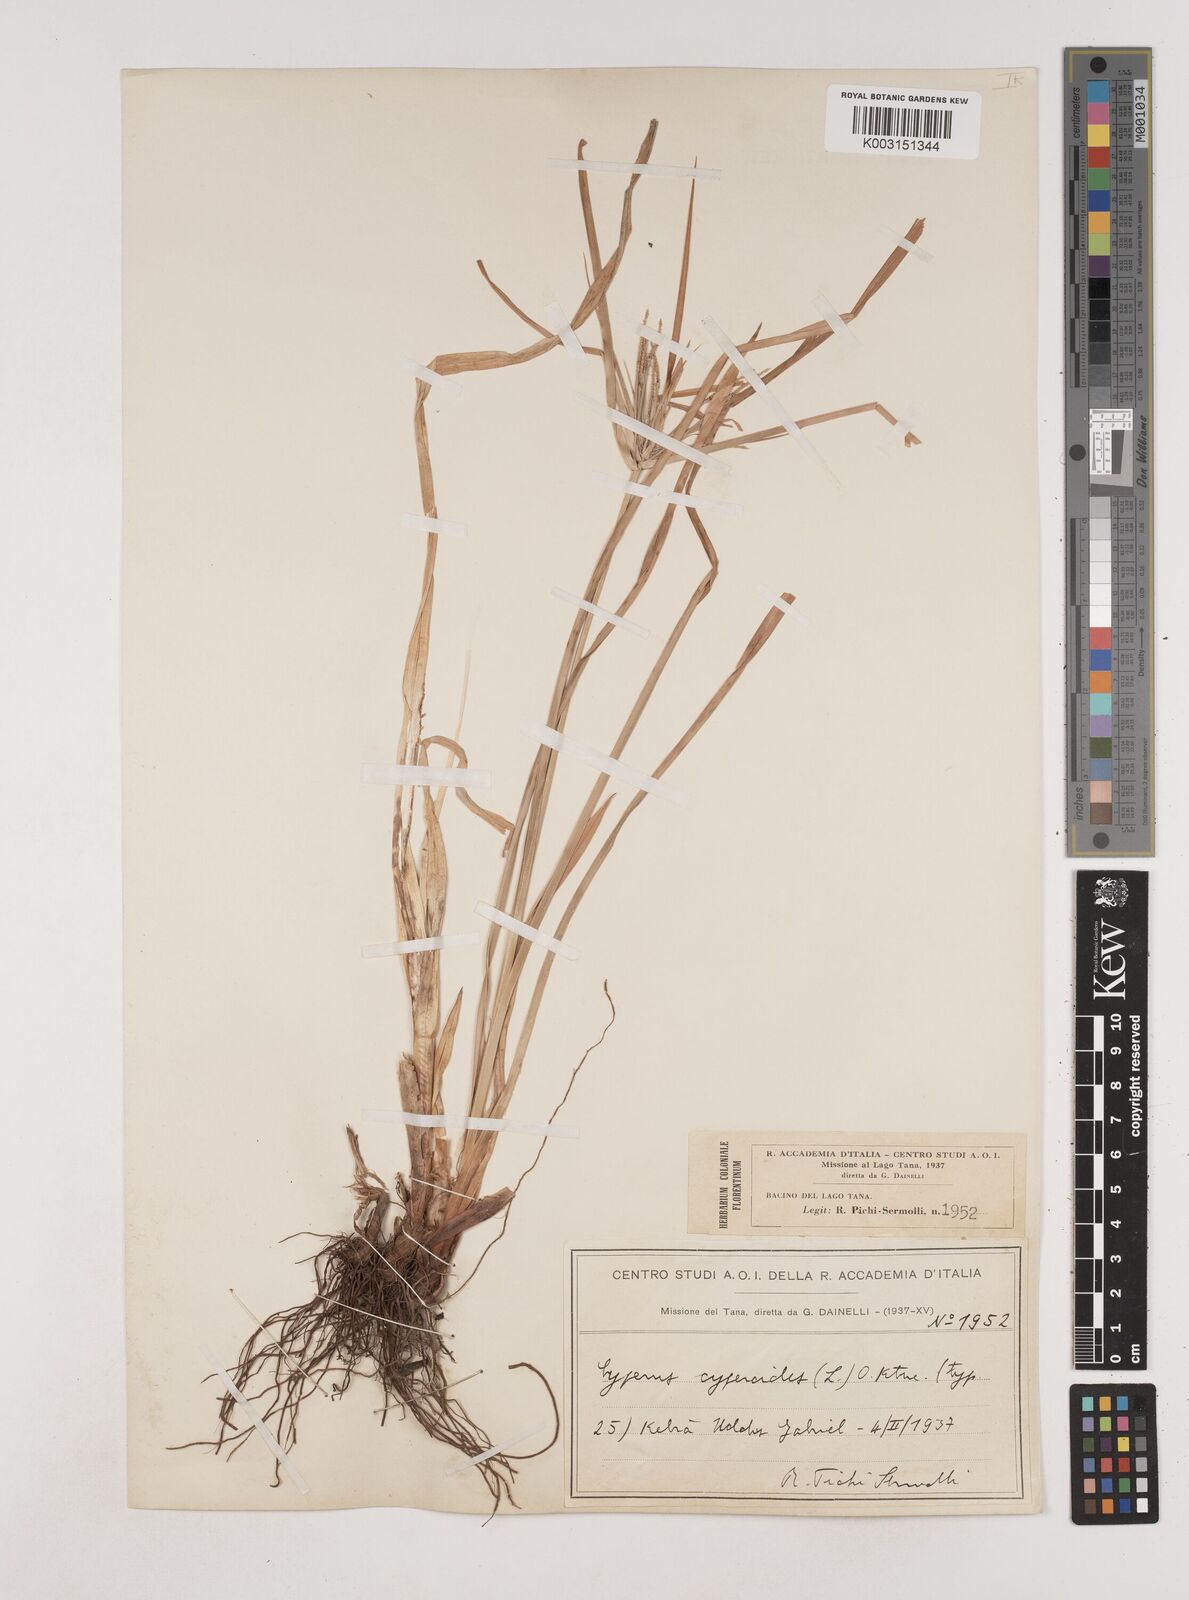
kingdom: Plantae
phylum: Tracheophyta
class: Liliopsida
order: Poales
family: Cyperaceae
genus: Cyperus
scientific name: Cyperus cyperoides
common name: Pacific island flat sedge
